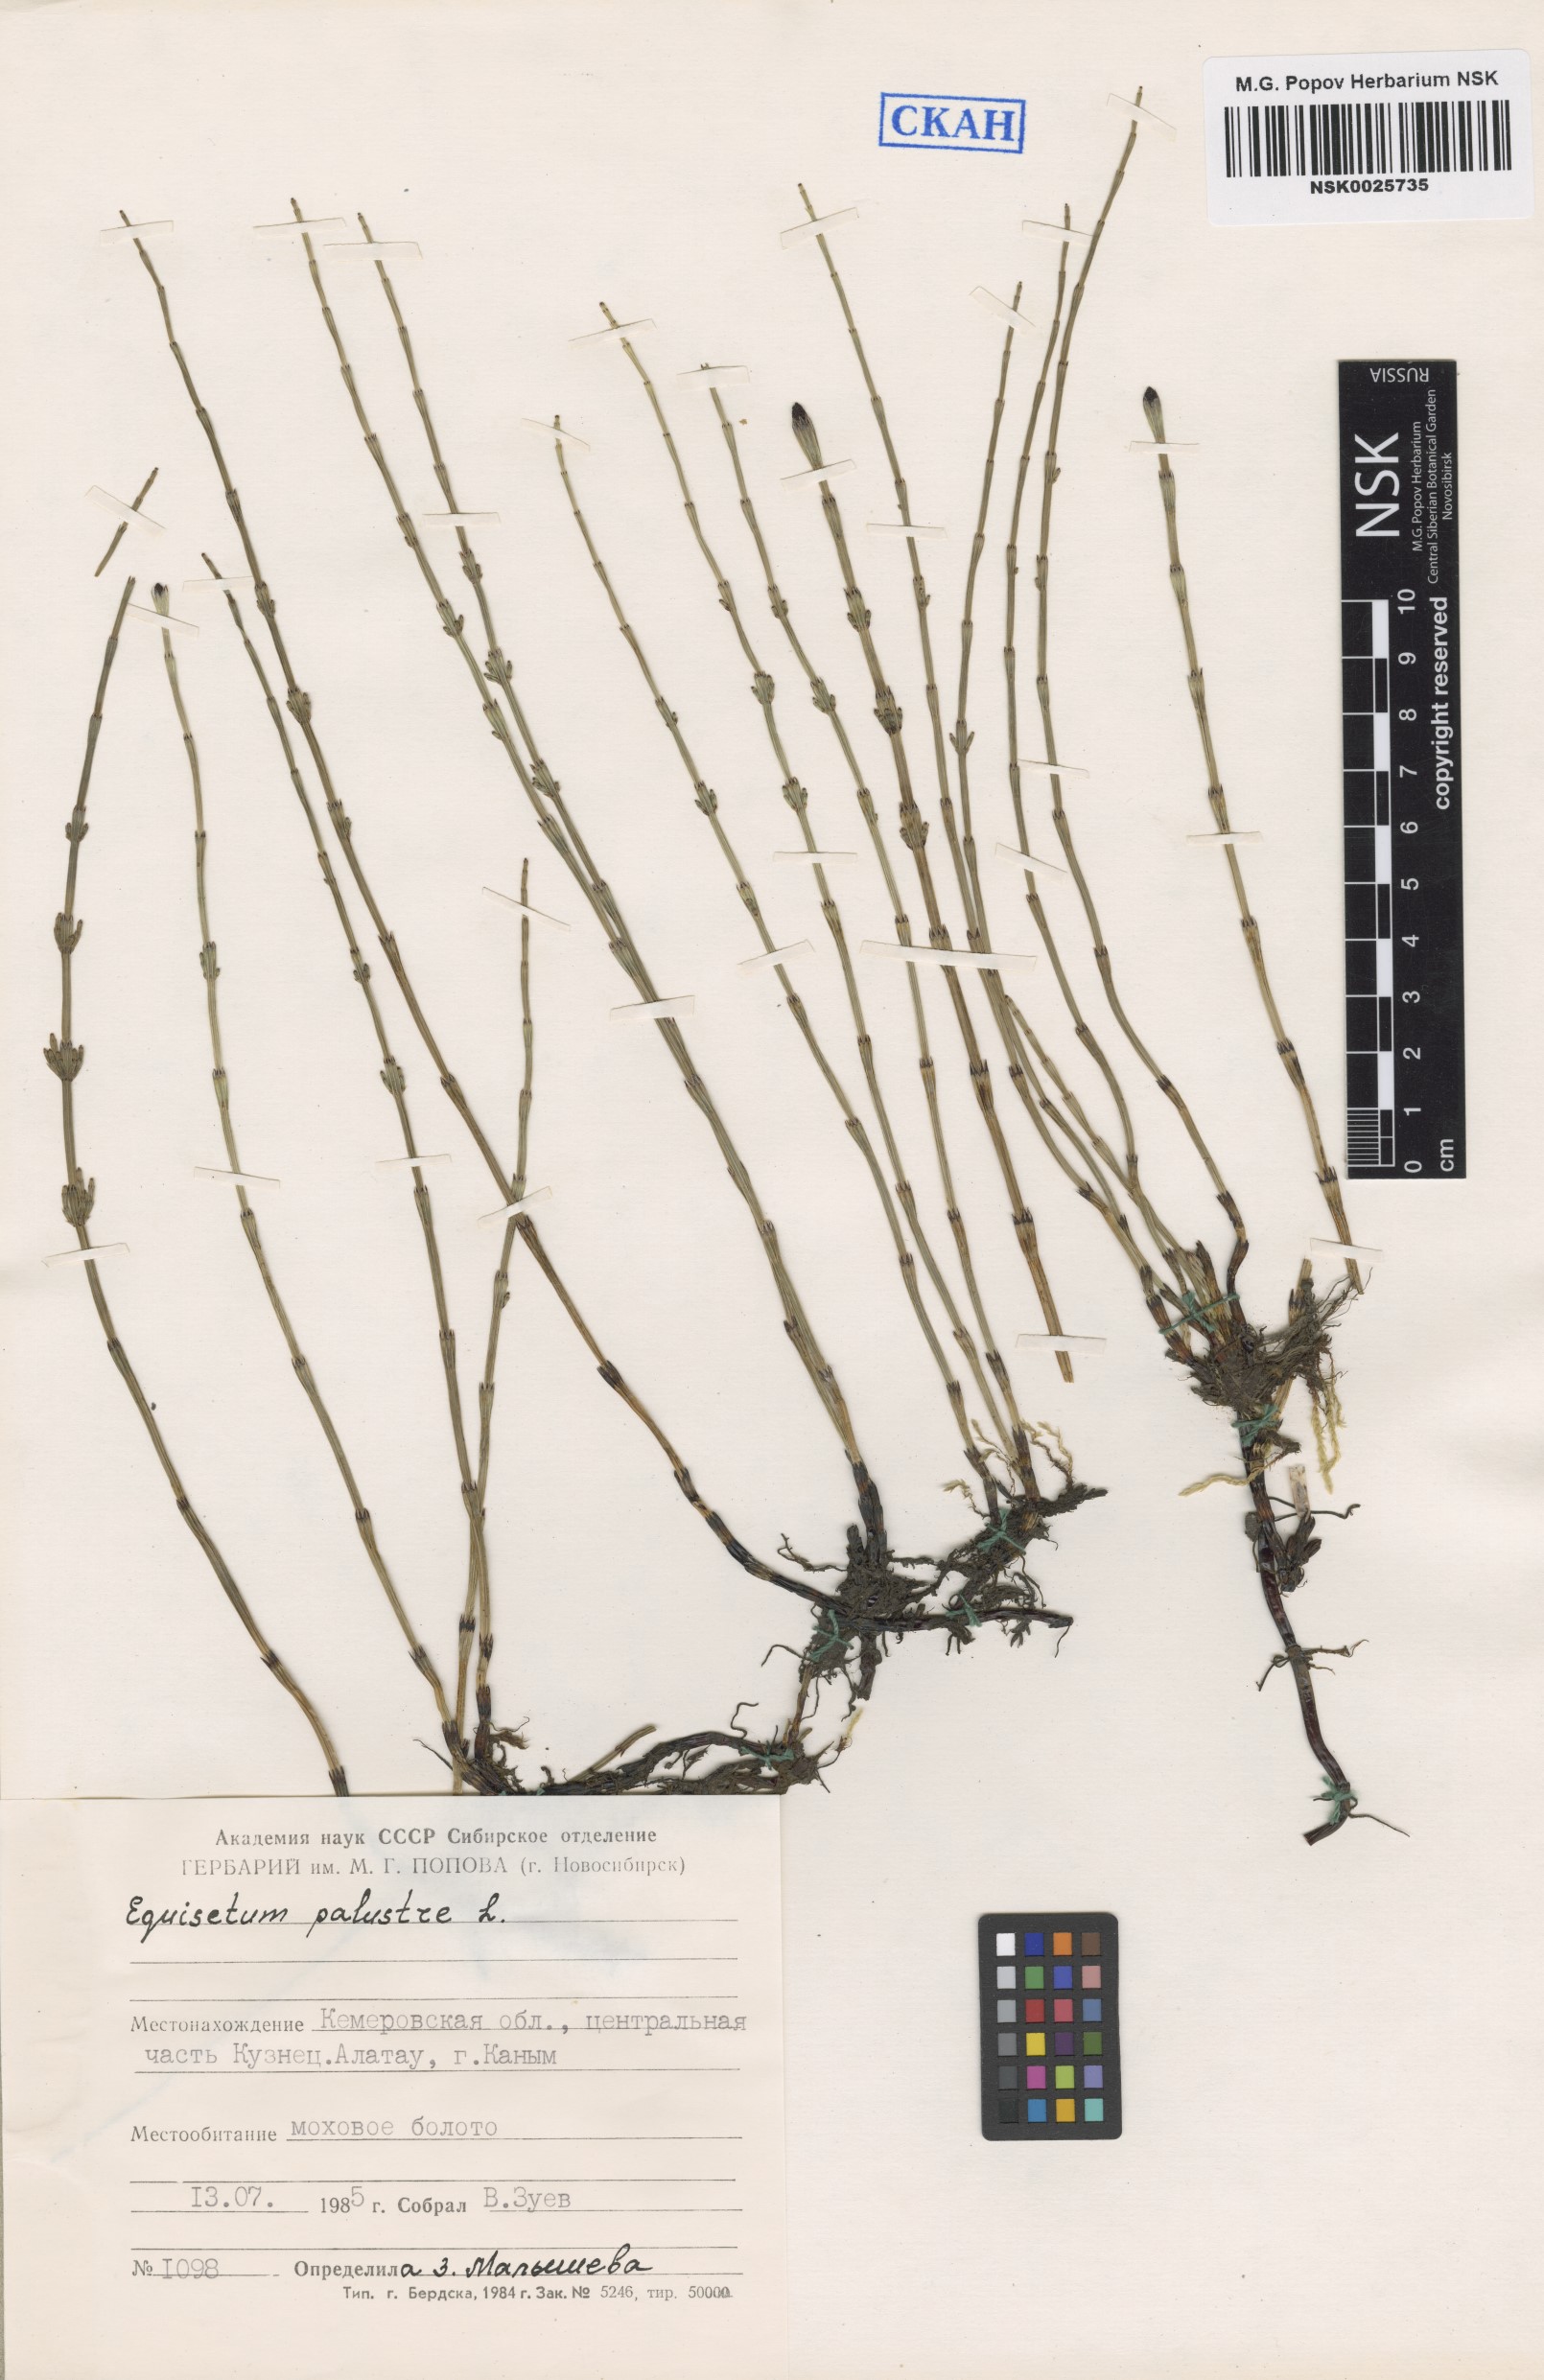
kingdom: Plantae
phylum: Tracheophyta
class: Polypodiopsida
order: Equisetales
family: Equisetaceae
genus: Equisetum
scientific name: Equisetum palustre
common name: Marsh horsetail
